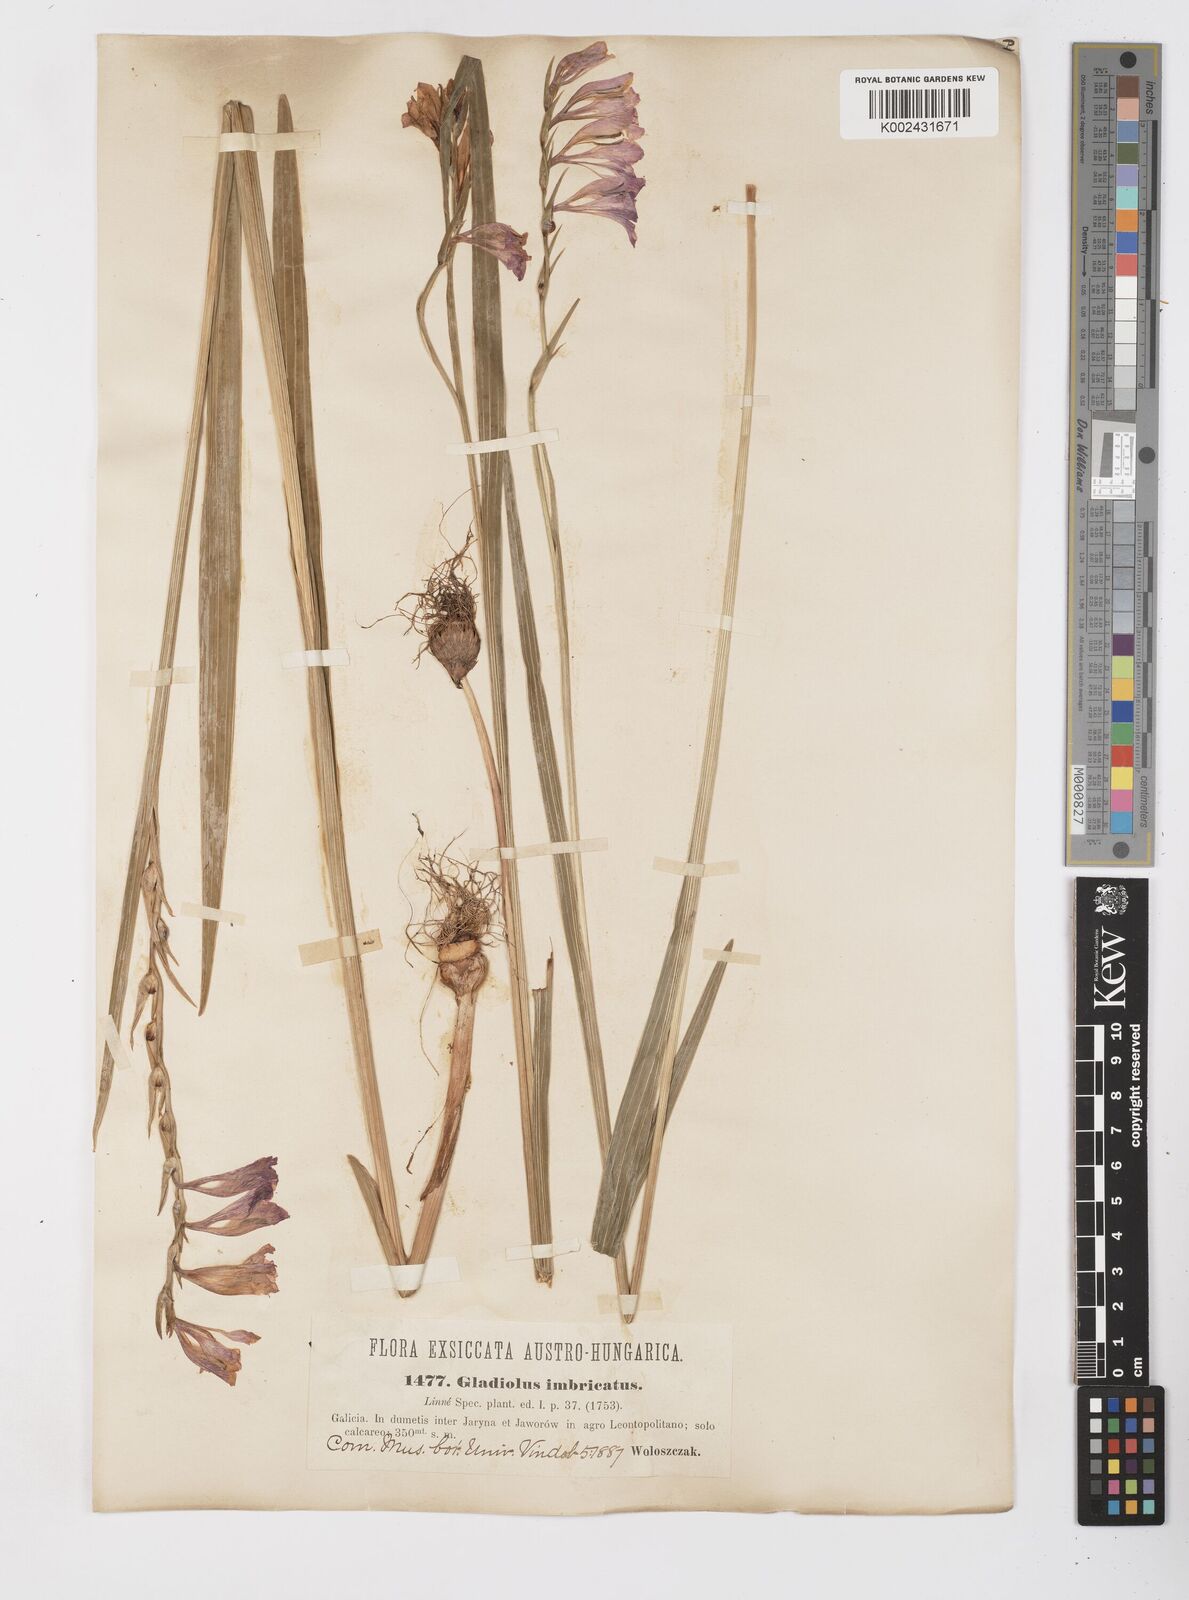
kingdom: Plantae
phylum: Tracheophyta
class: Liliopsida
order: Asparagales
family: Iridaceae
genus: Gladiolus
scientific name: Gladiolus imbricatus
